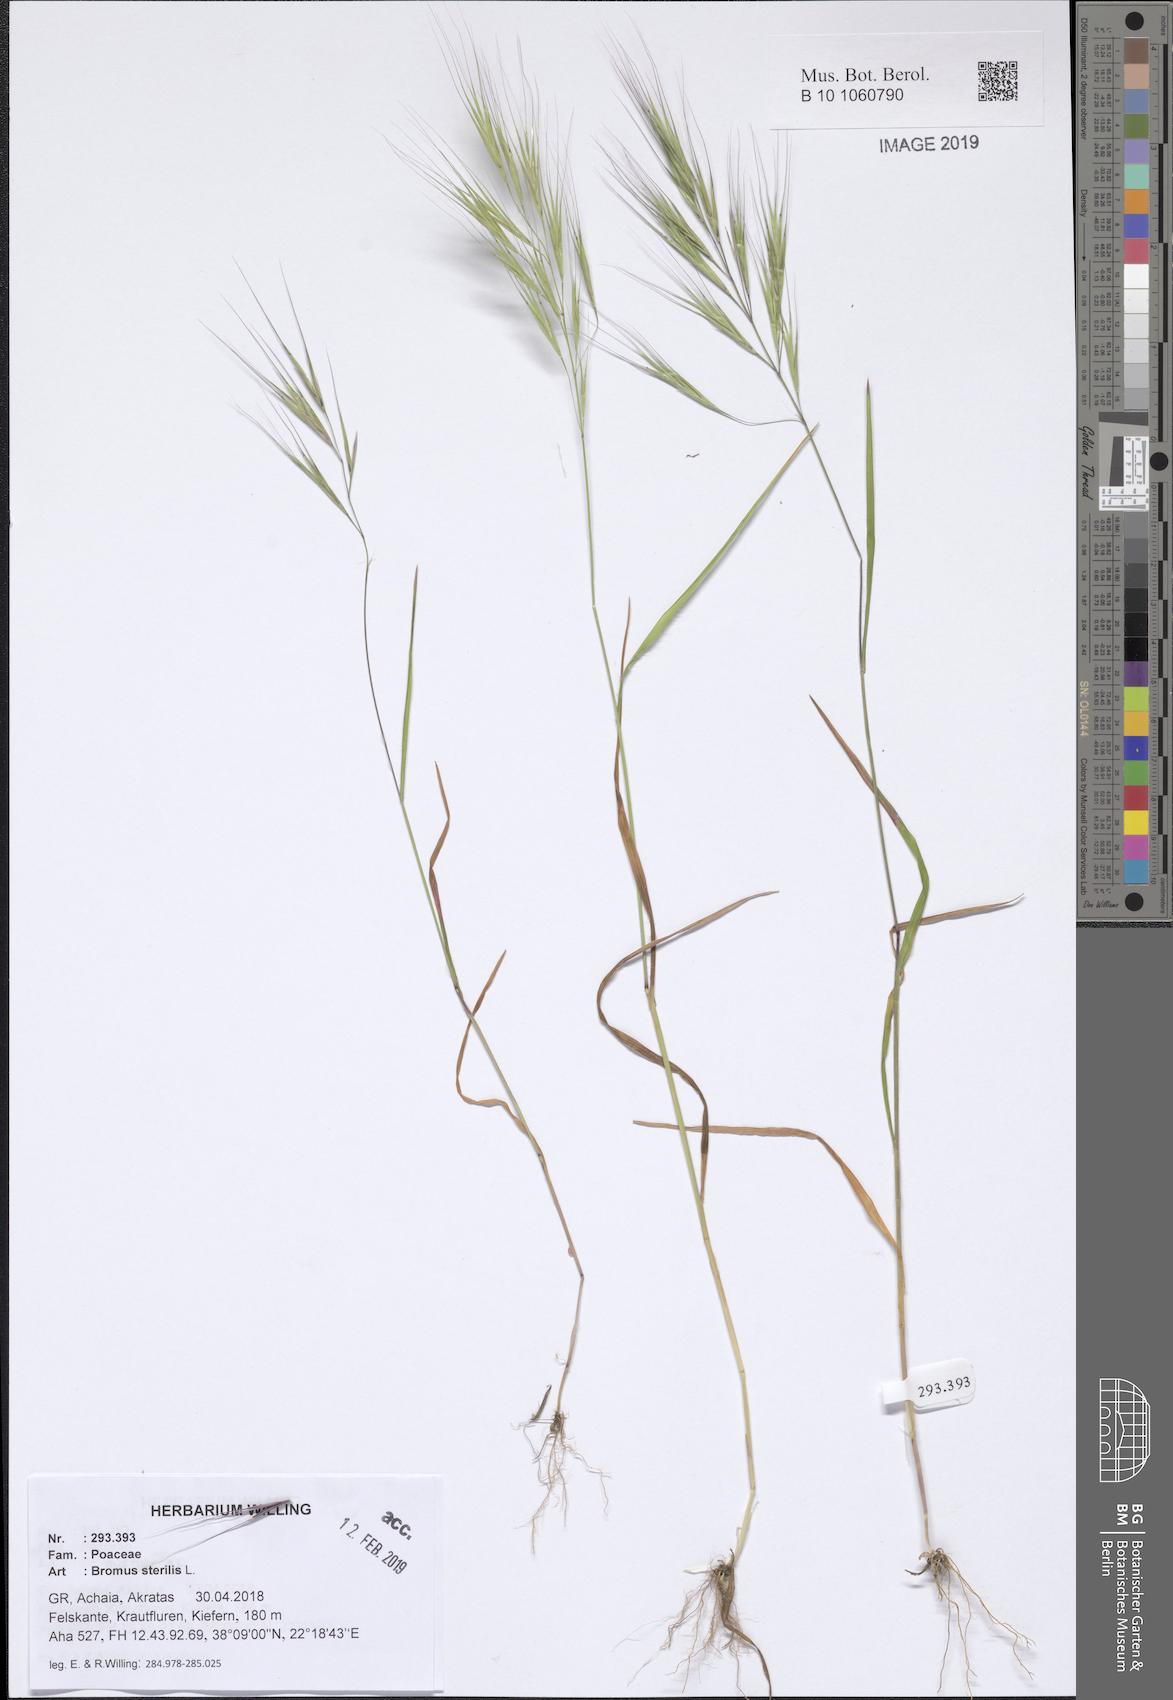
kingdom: Plantae
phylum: Tracheophyta
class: Liliopsida
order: Poales
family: Poaceae
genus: Bromus
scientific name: Bromus sterilis
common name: Poverty brome
